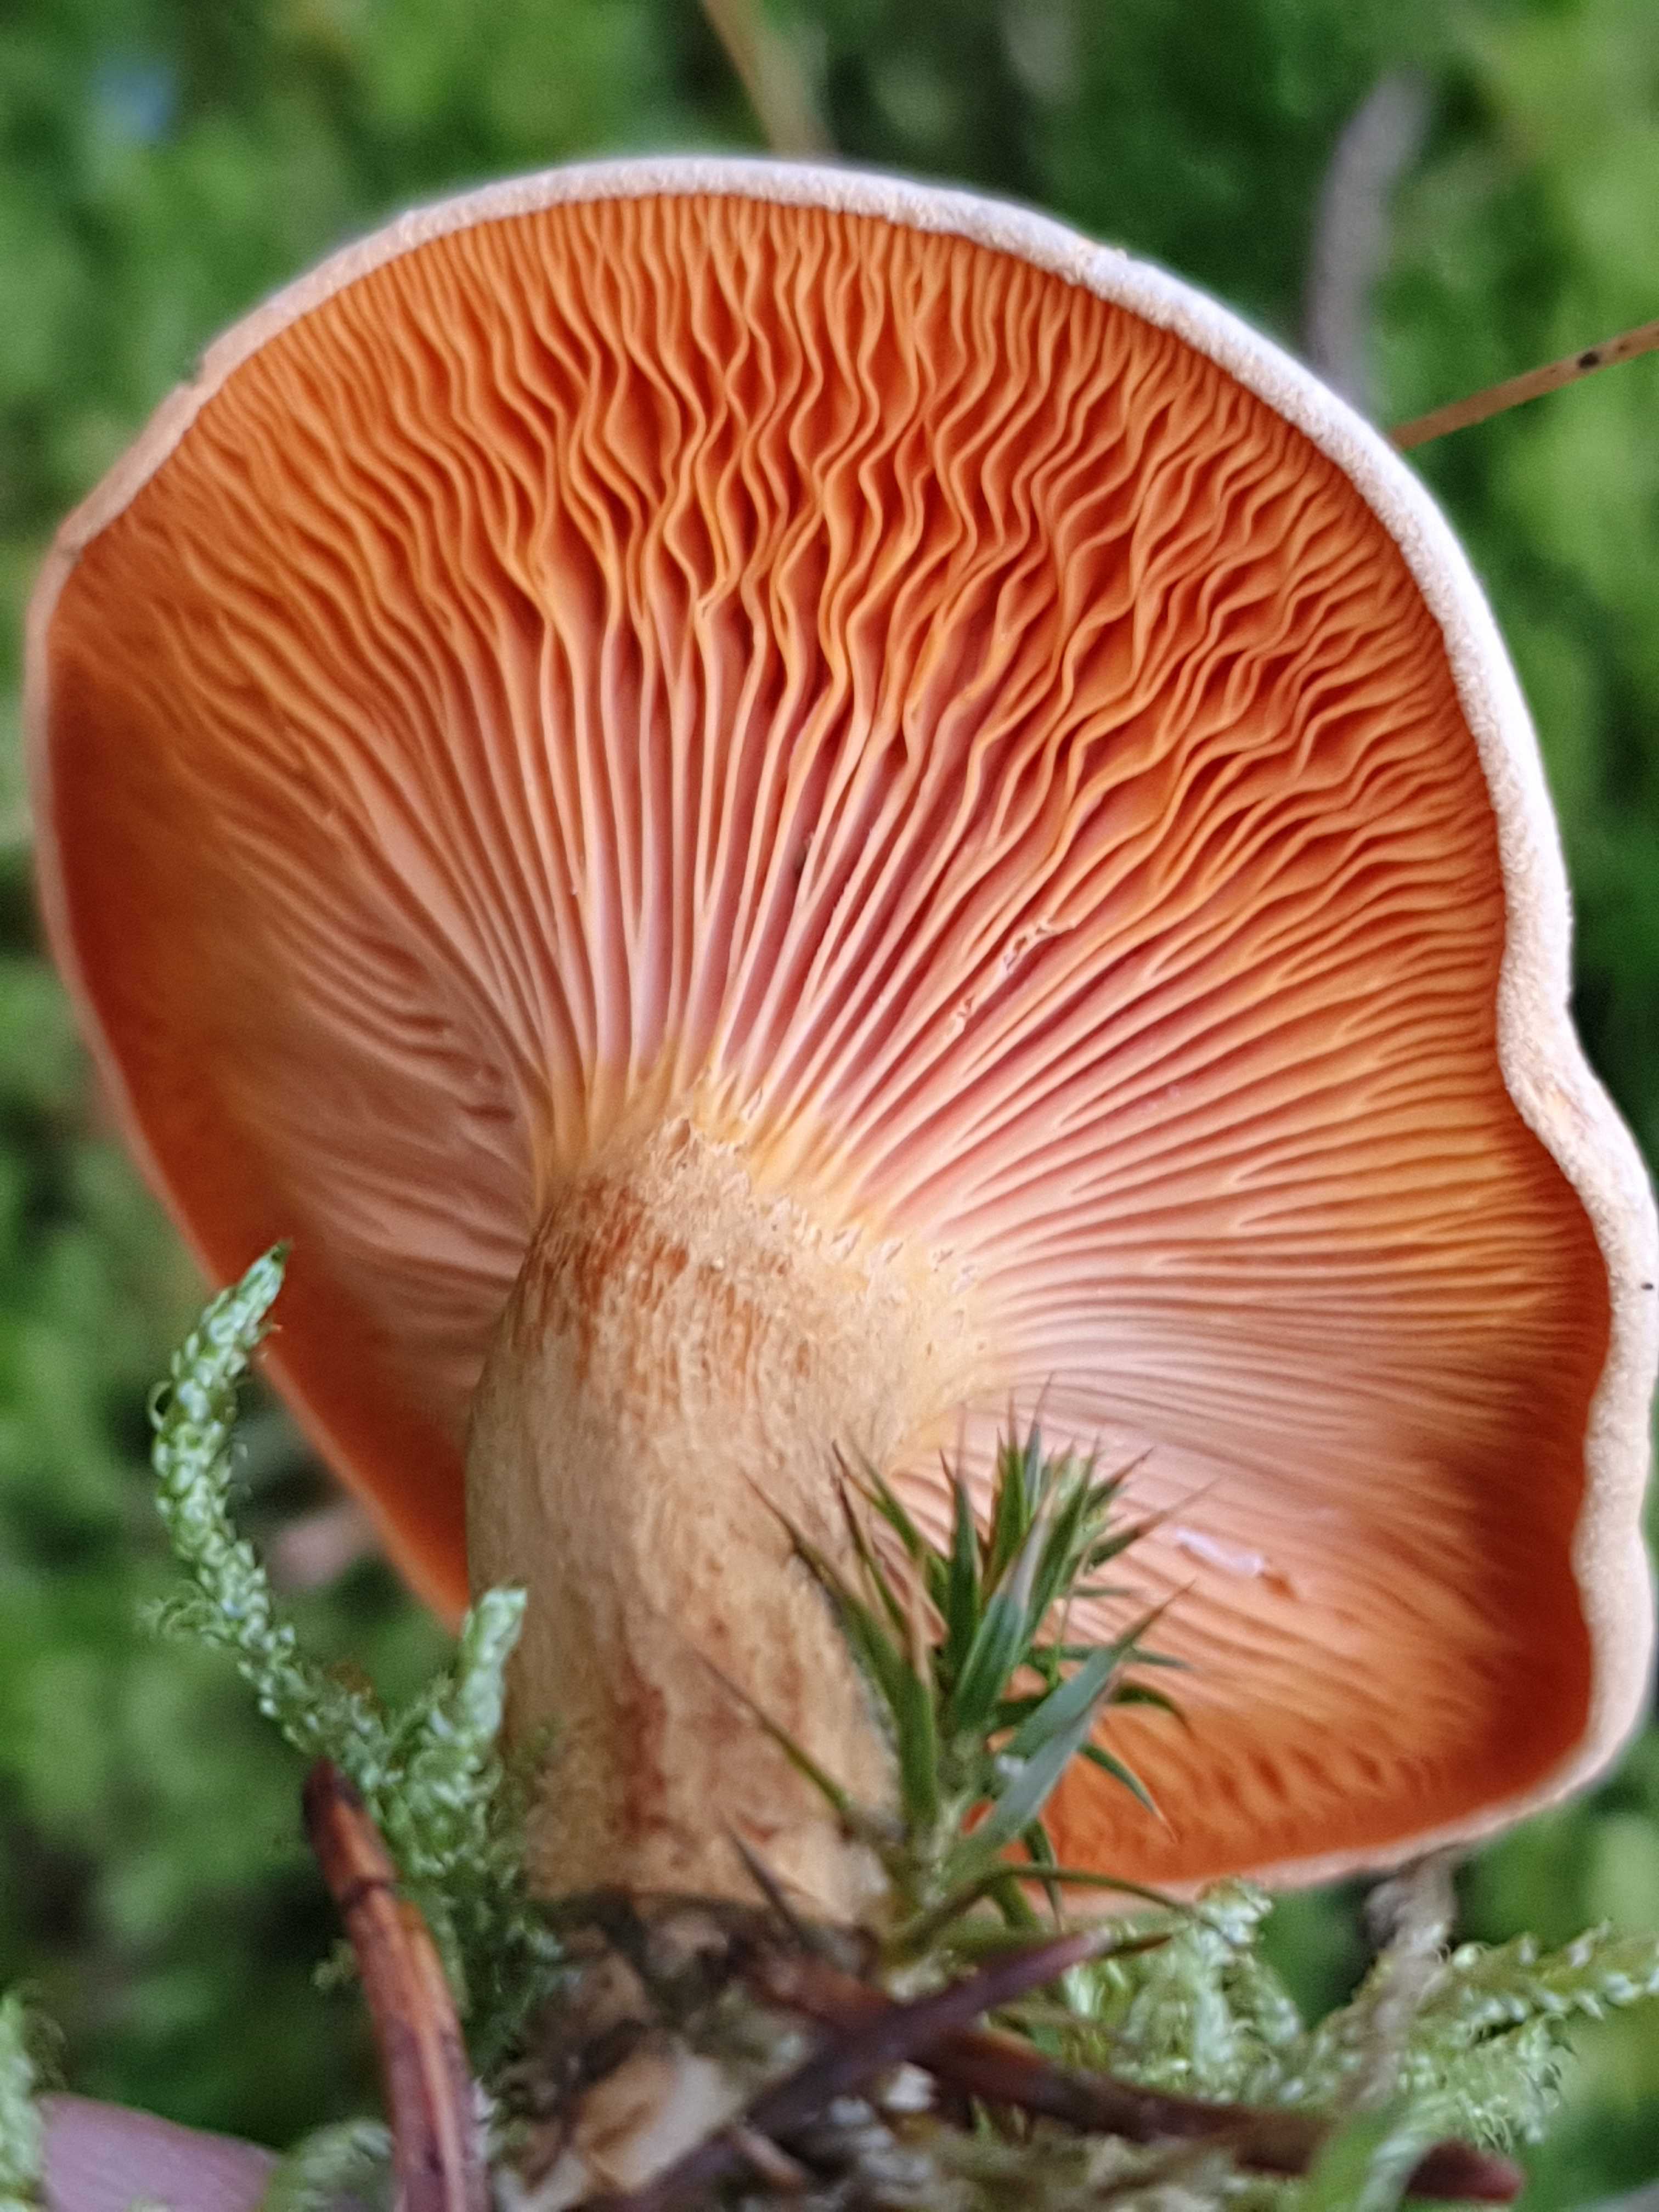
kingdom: Fungi
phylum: Basidiomycota
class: Agaricomycetes
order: Boletales
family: Hygrophoropsidaceae
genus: Hygrophoropsis
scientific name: Hygrophoropsis aurantiaca
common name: almindelig orangekantarel
